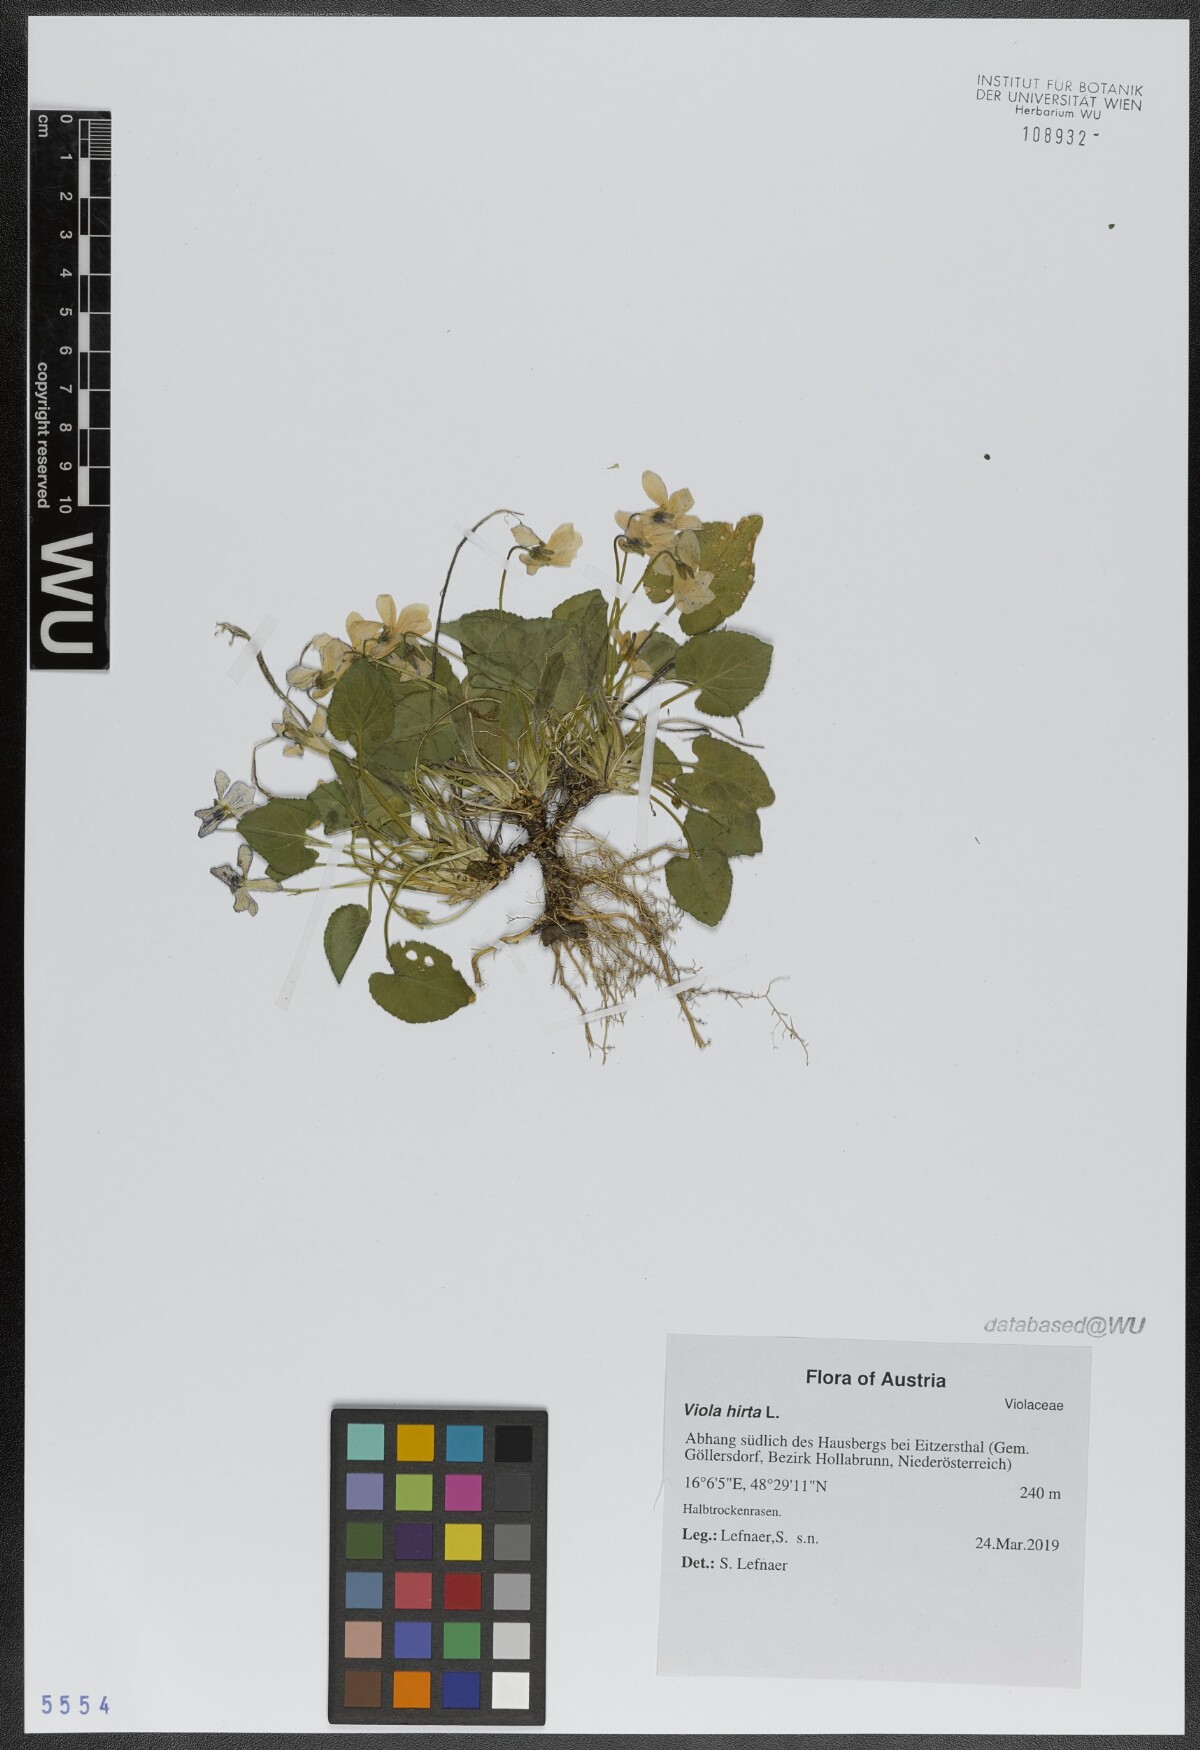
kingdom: Plantae
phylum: Tracheophyta
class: Magnoliopsida
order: Malpighiales
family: Violaceae
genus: Viola
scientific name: Viola hirta
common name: Hairy violet
